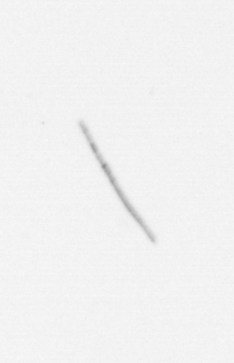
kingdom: Chromista
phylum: Ochrophyta
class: Bacillariophyceae
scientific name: Bacillariophyceae
